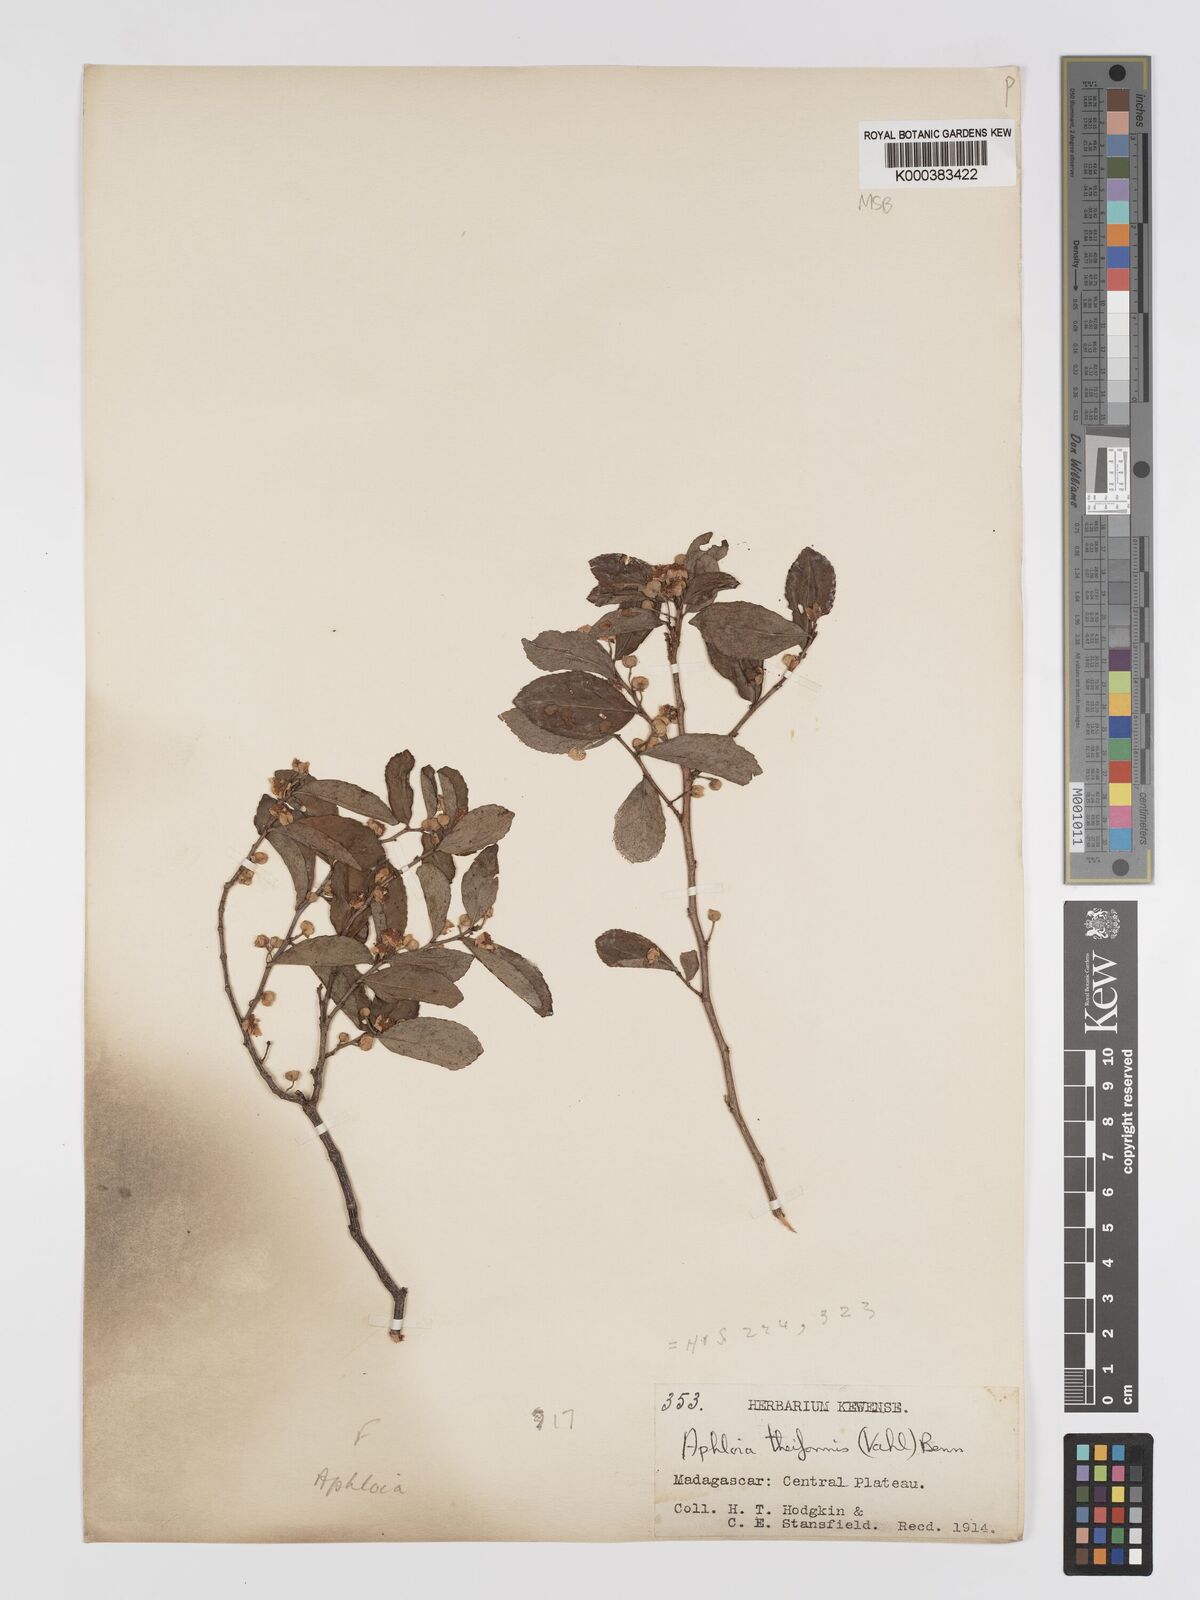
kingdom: Plantae
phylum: Tracheophyta
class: Magnoliopsida
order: Crossosomatales
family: Aphloiaceae
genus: Aphloia
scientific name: Aphloia theiformis
